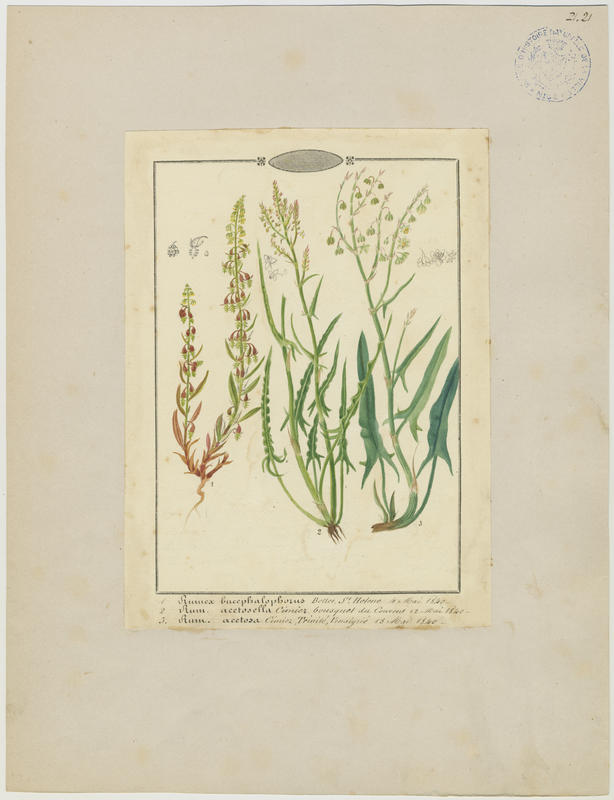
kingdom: Plantae
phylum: Tracheophyta
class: Magnoliopsida
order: Caryophyllales
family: Polygonaceae
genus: Rumex
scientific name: Rumex acetosa
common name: Garden sorrel
